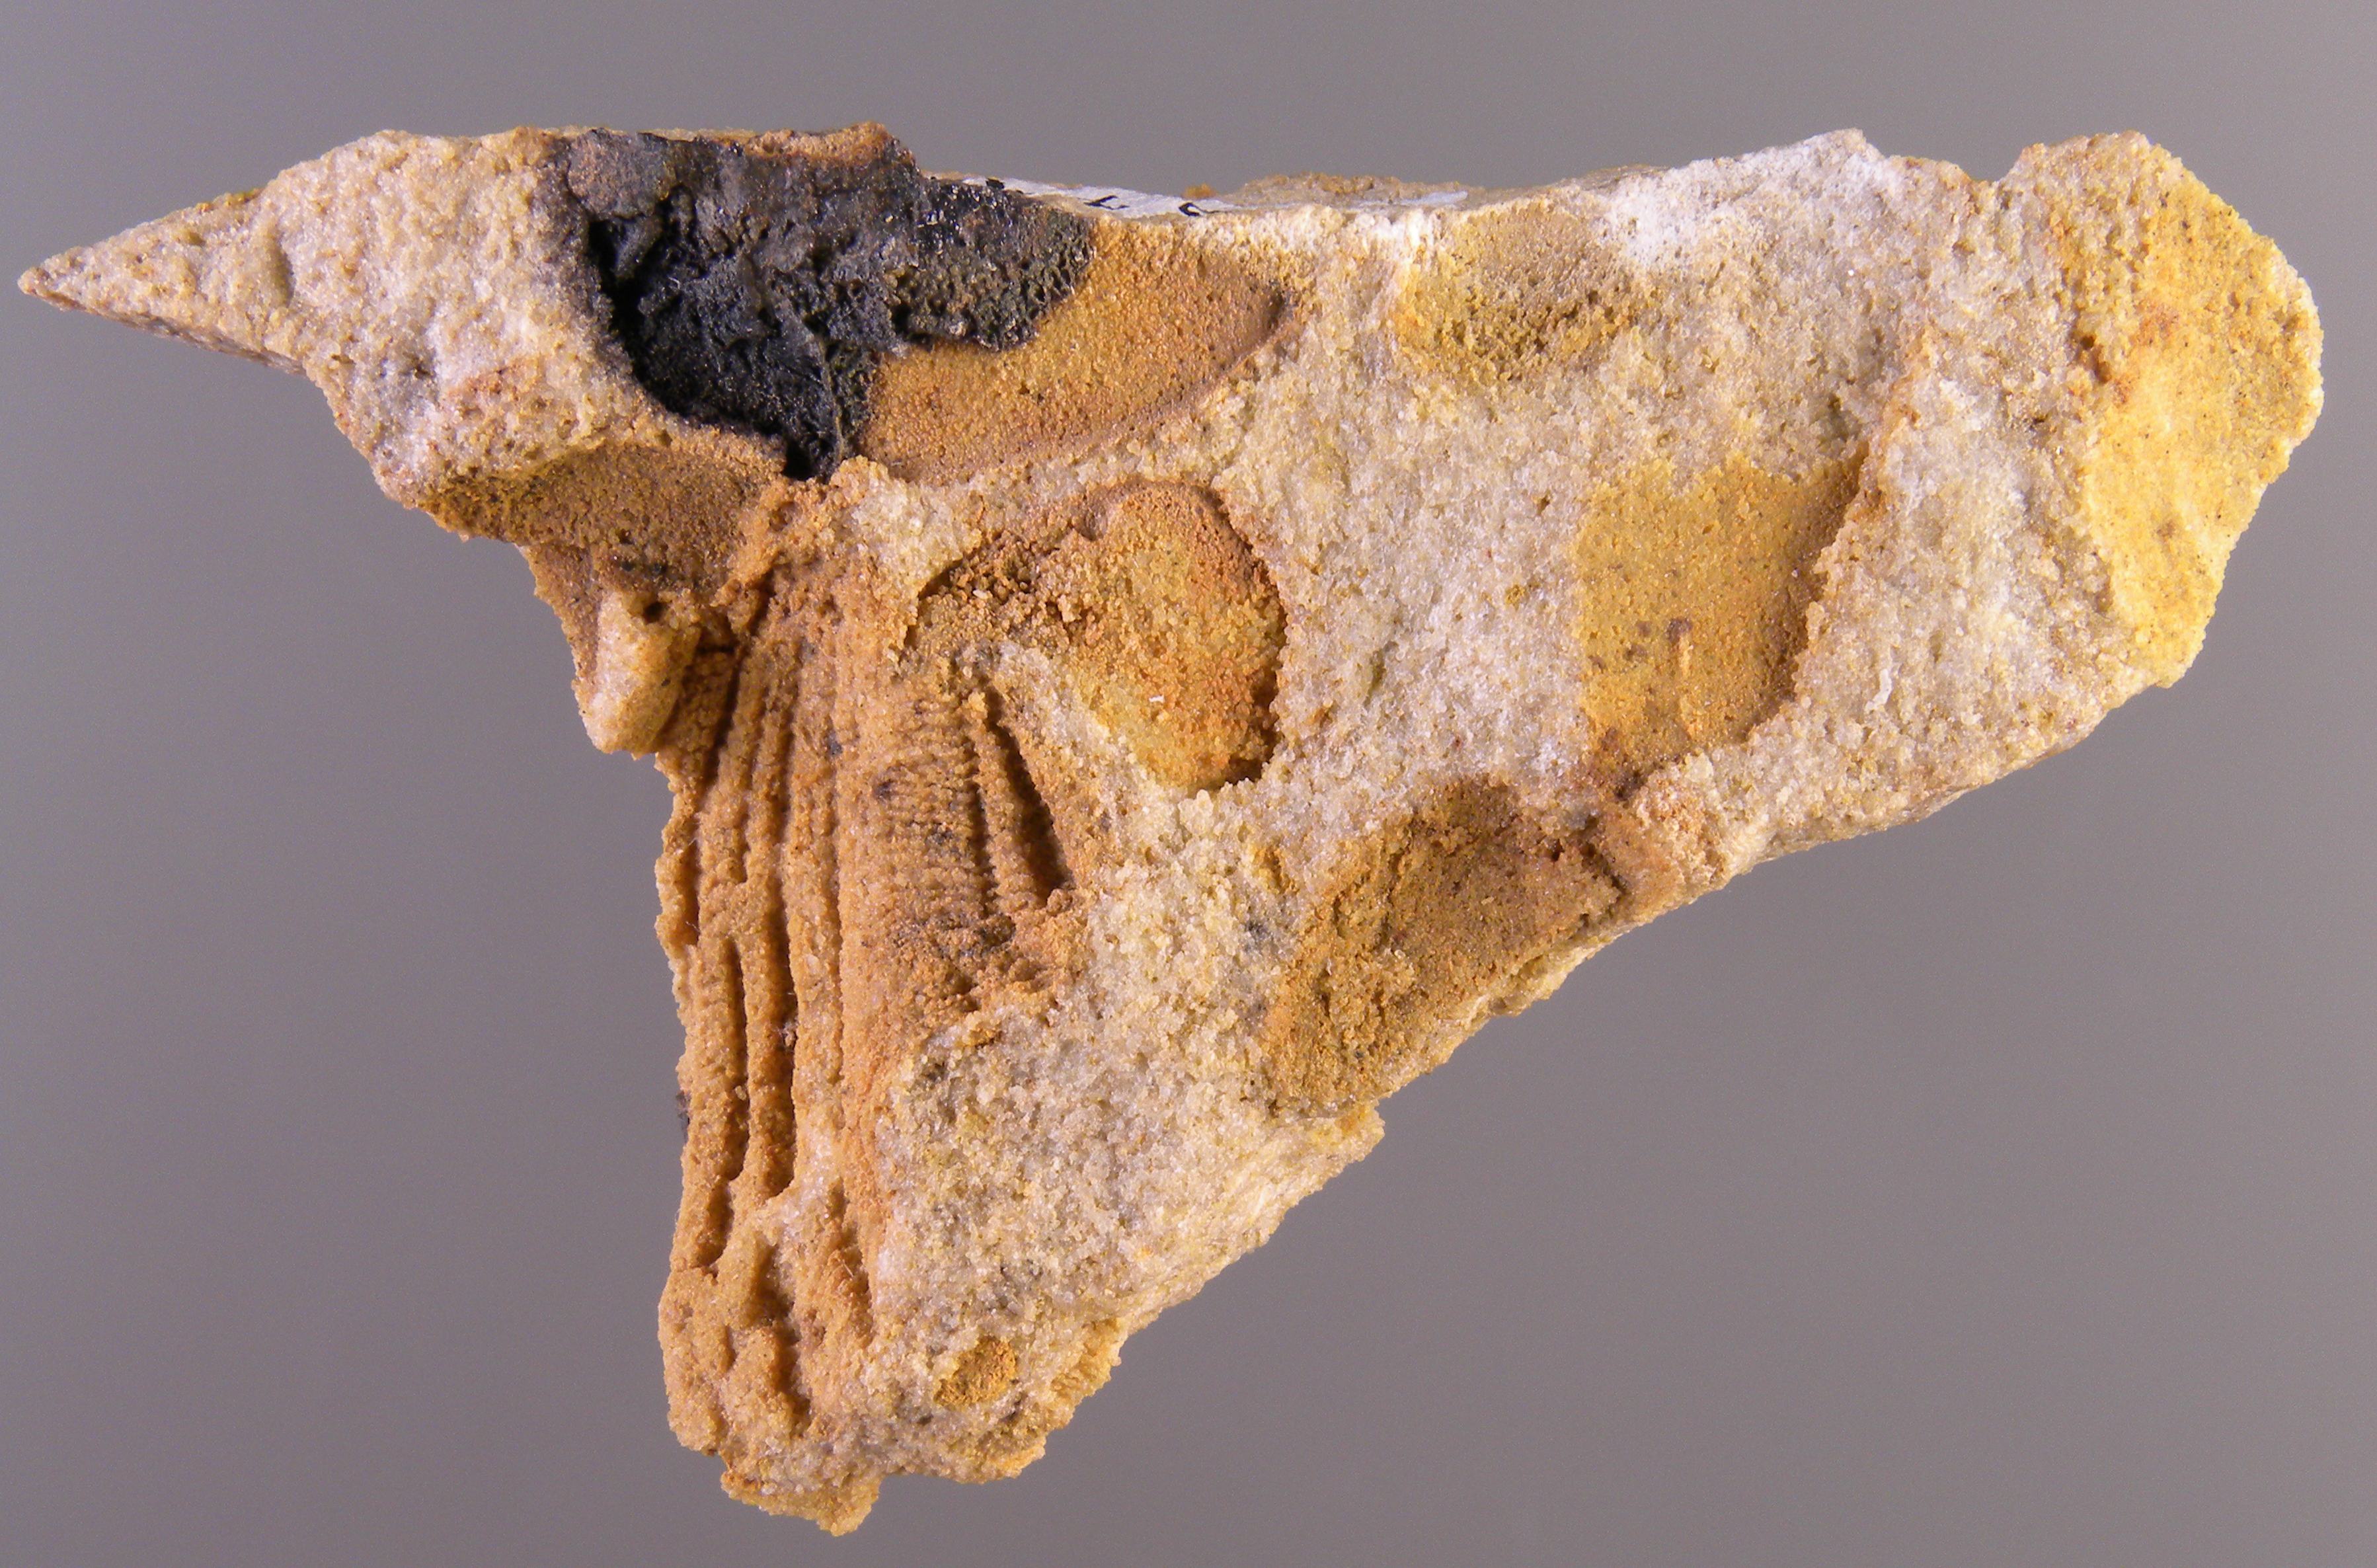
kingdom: Animalia
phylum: Mollusca
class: Bivalvia
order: Ostreida
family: Pterineidae
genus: Ptychopteria
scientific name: Ptychopteria
